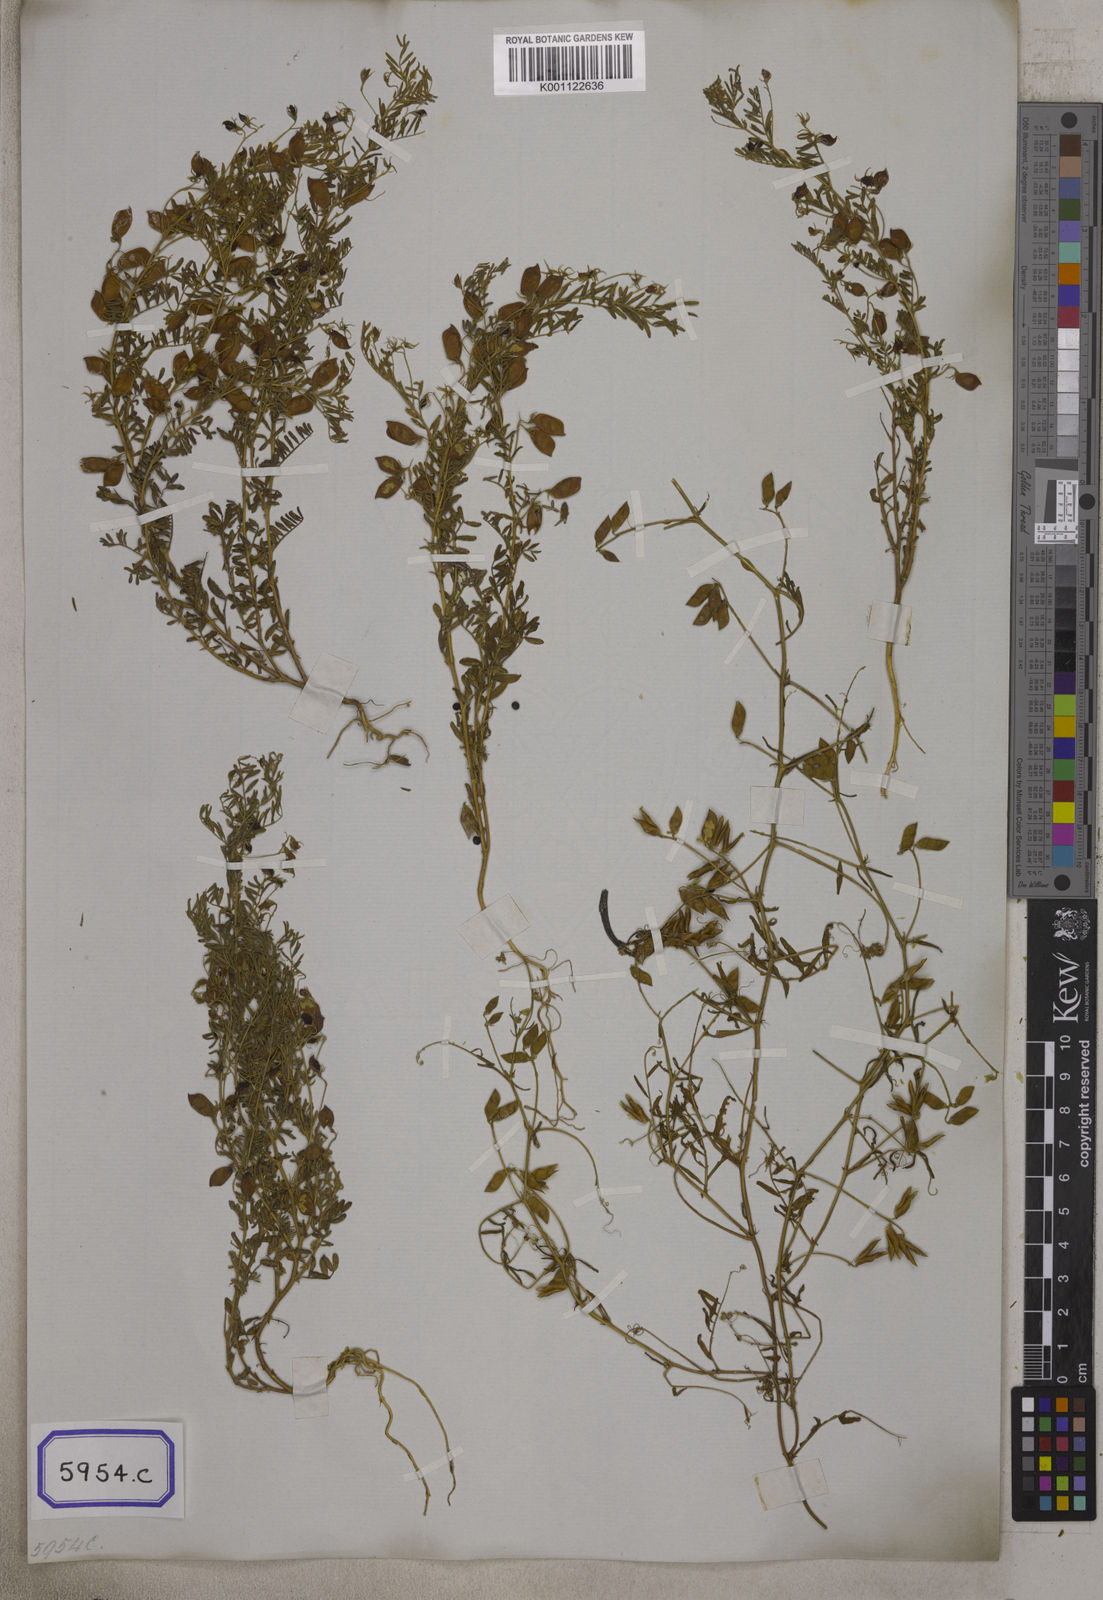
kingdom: Plantae
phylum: Tracheophyta
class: Magnoliopsida
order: Fabales
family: Fabaceae
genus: Vicia
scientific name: Vicia
